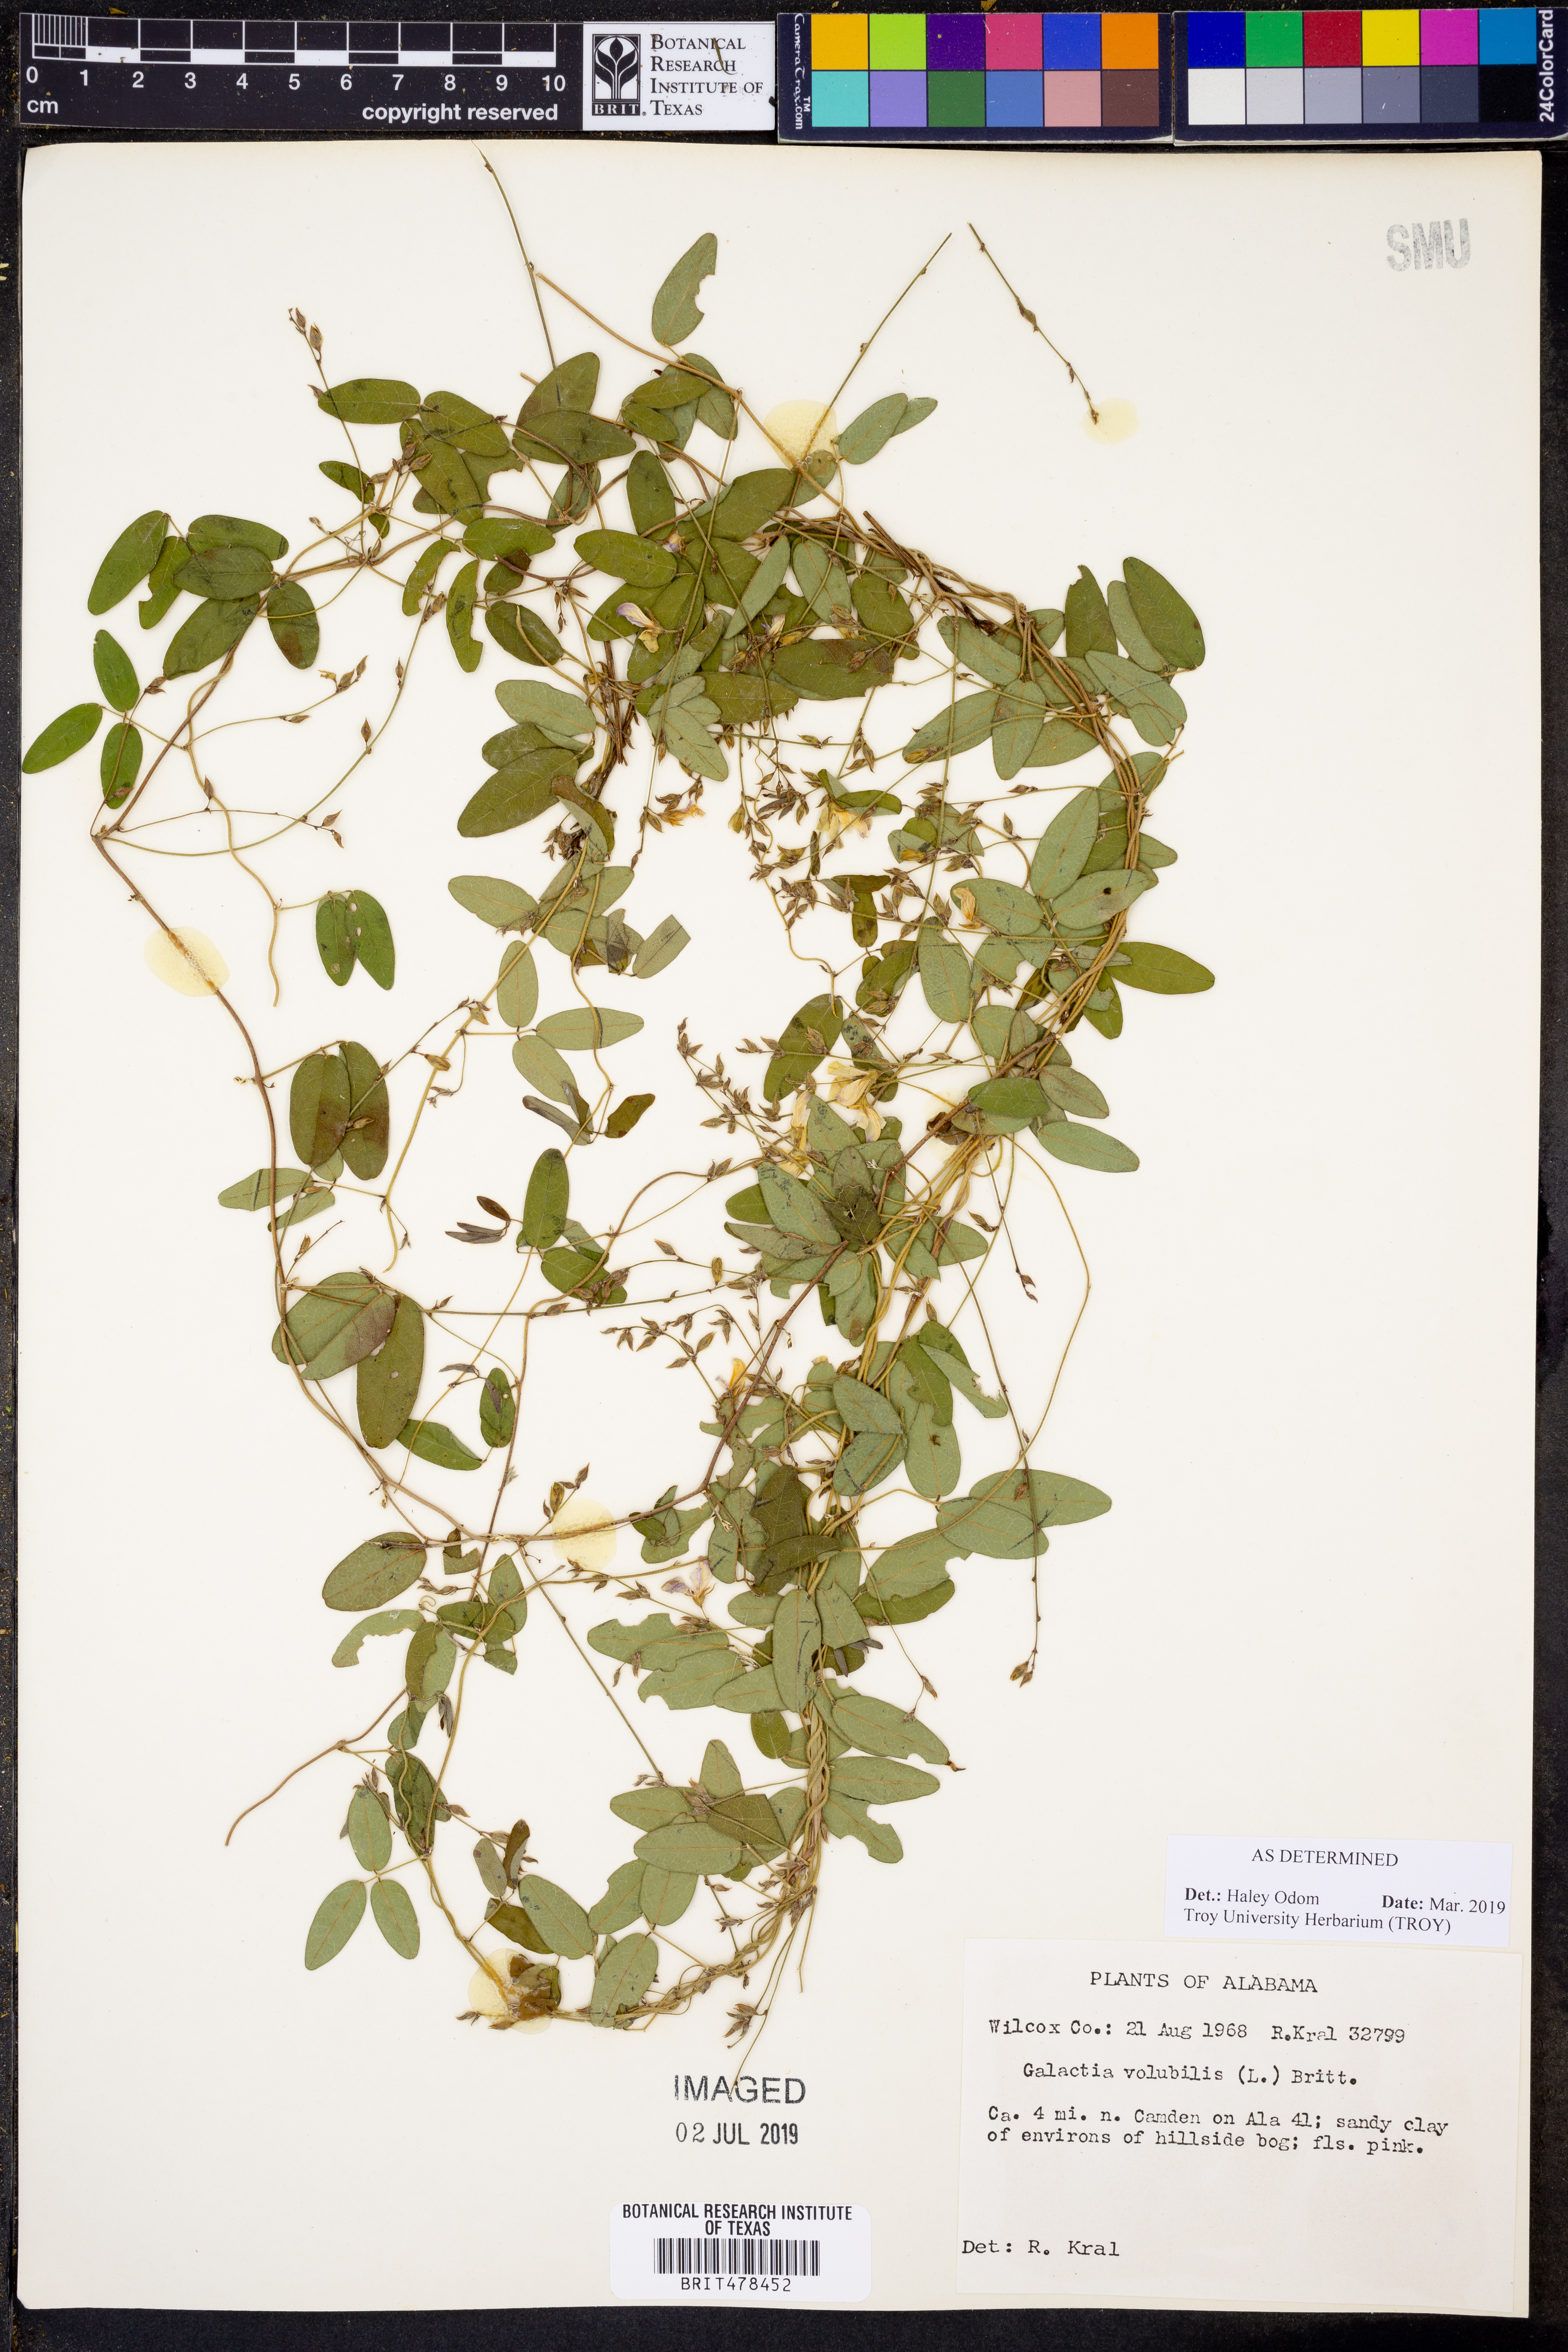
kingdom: Plantae
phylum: Tracheophyta
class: Magnoliopsida
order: Fabales
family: Fabaceae
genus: Galactia
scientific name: Galactia volubilis
